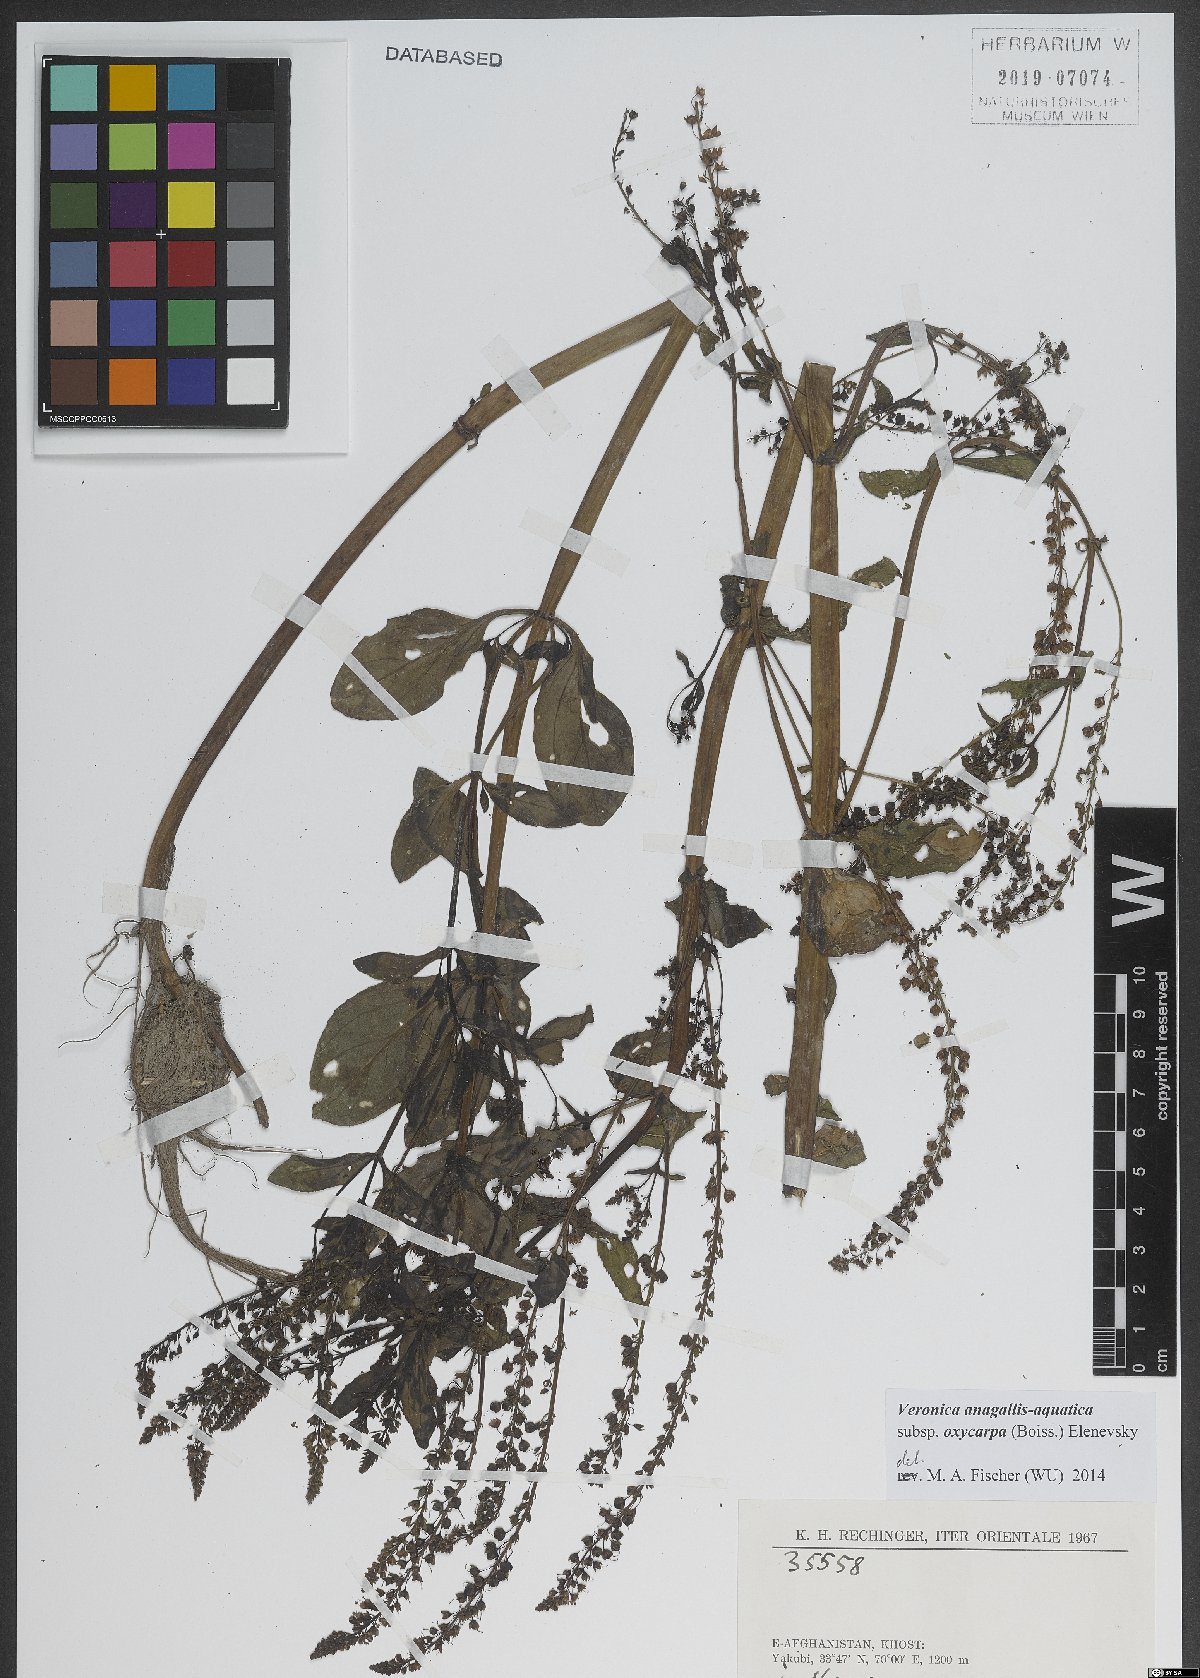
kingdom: Plantae
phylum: Tracheophyta
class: Magnoliopsida
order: Lamiales
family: Plantaginaceae
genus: Veronica
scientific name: Veronica oxycarpa
